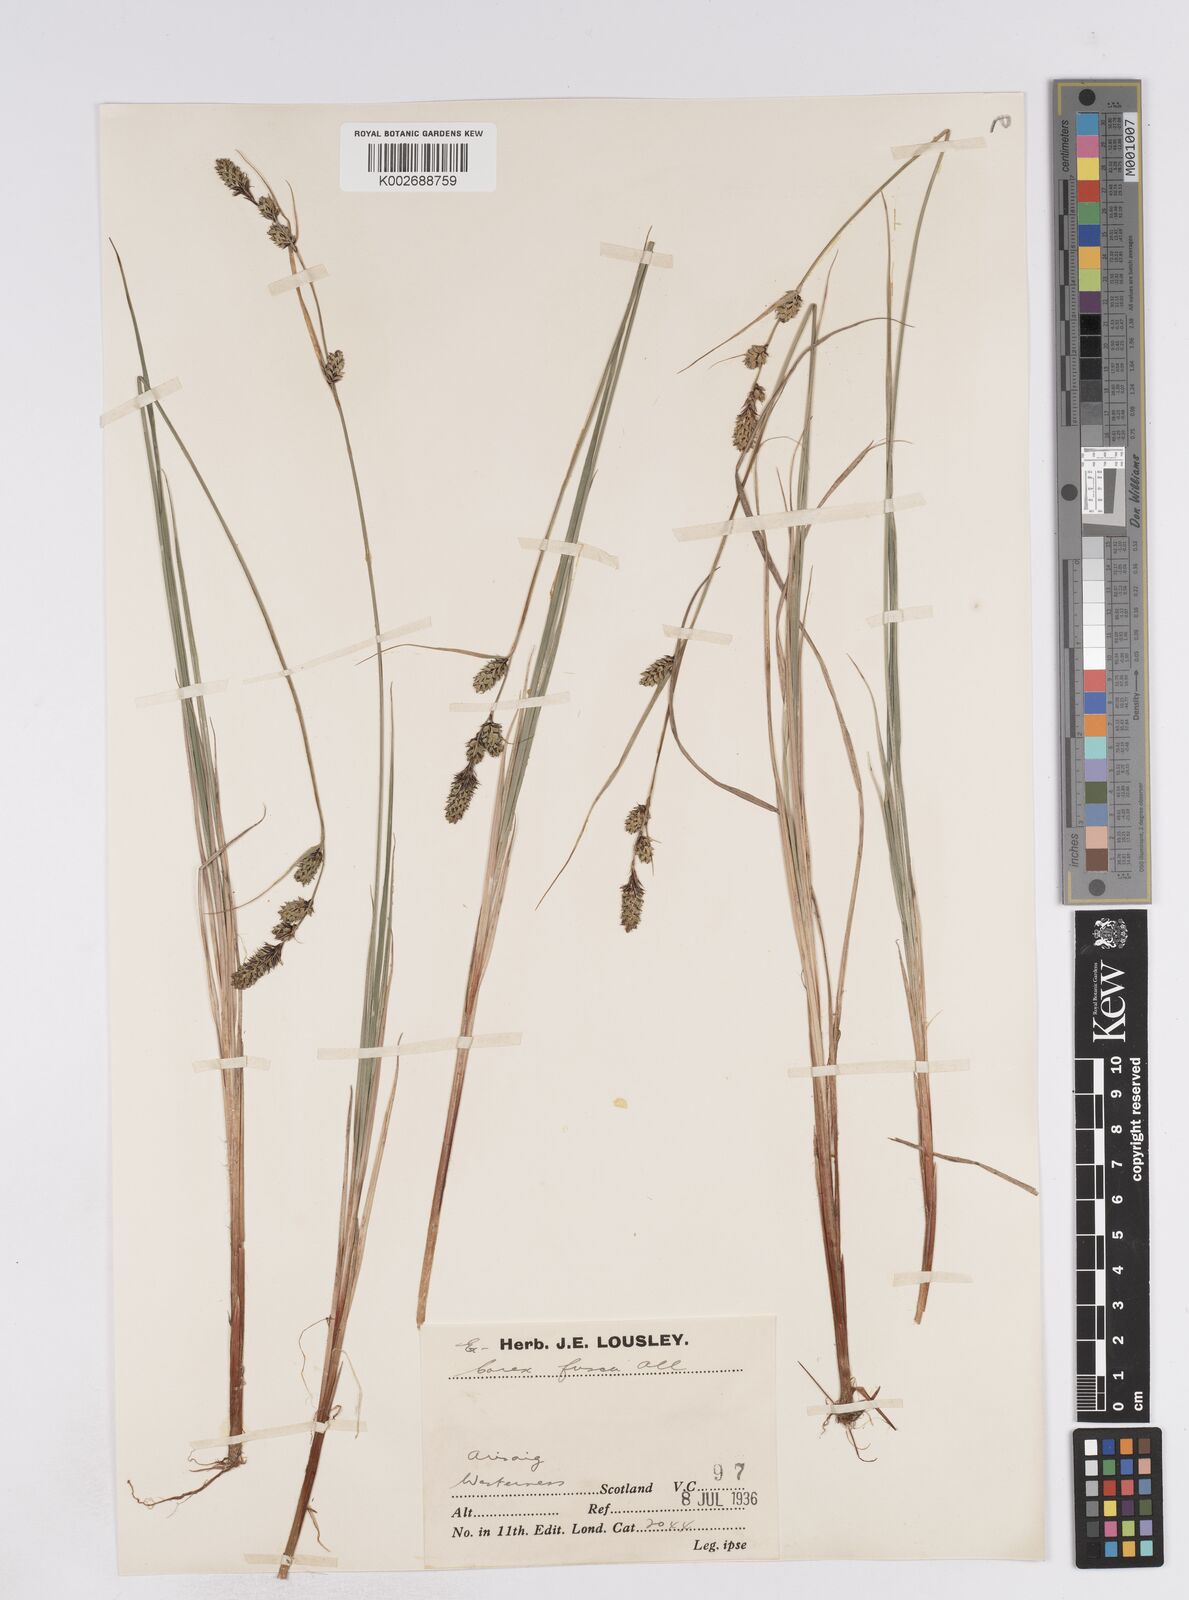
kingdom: Plantae
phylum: Tracheophyta
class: Liliopsida
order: Poales
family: Cyperaceae
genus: Carex
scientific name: Carex buxbaumii
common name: Club sedge
